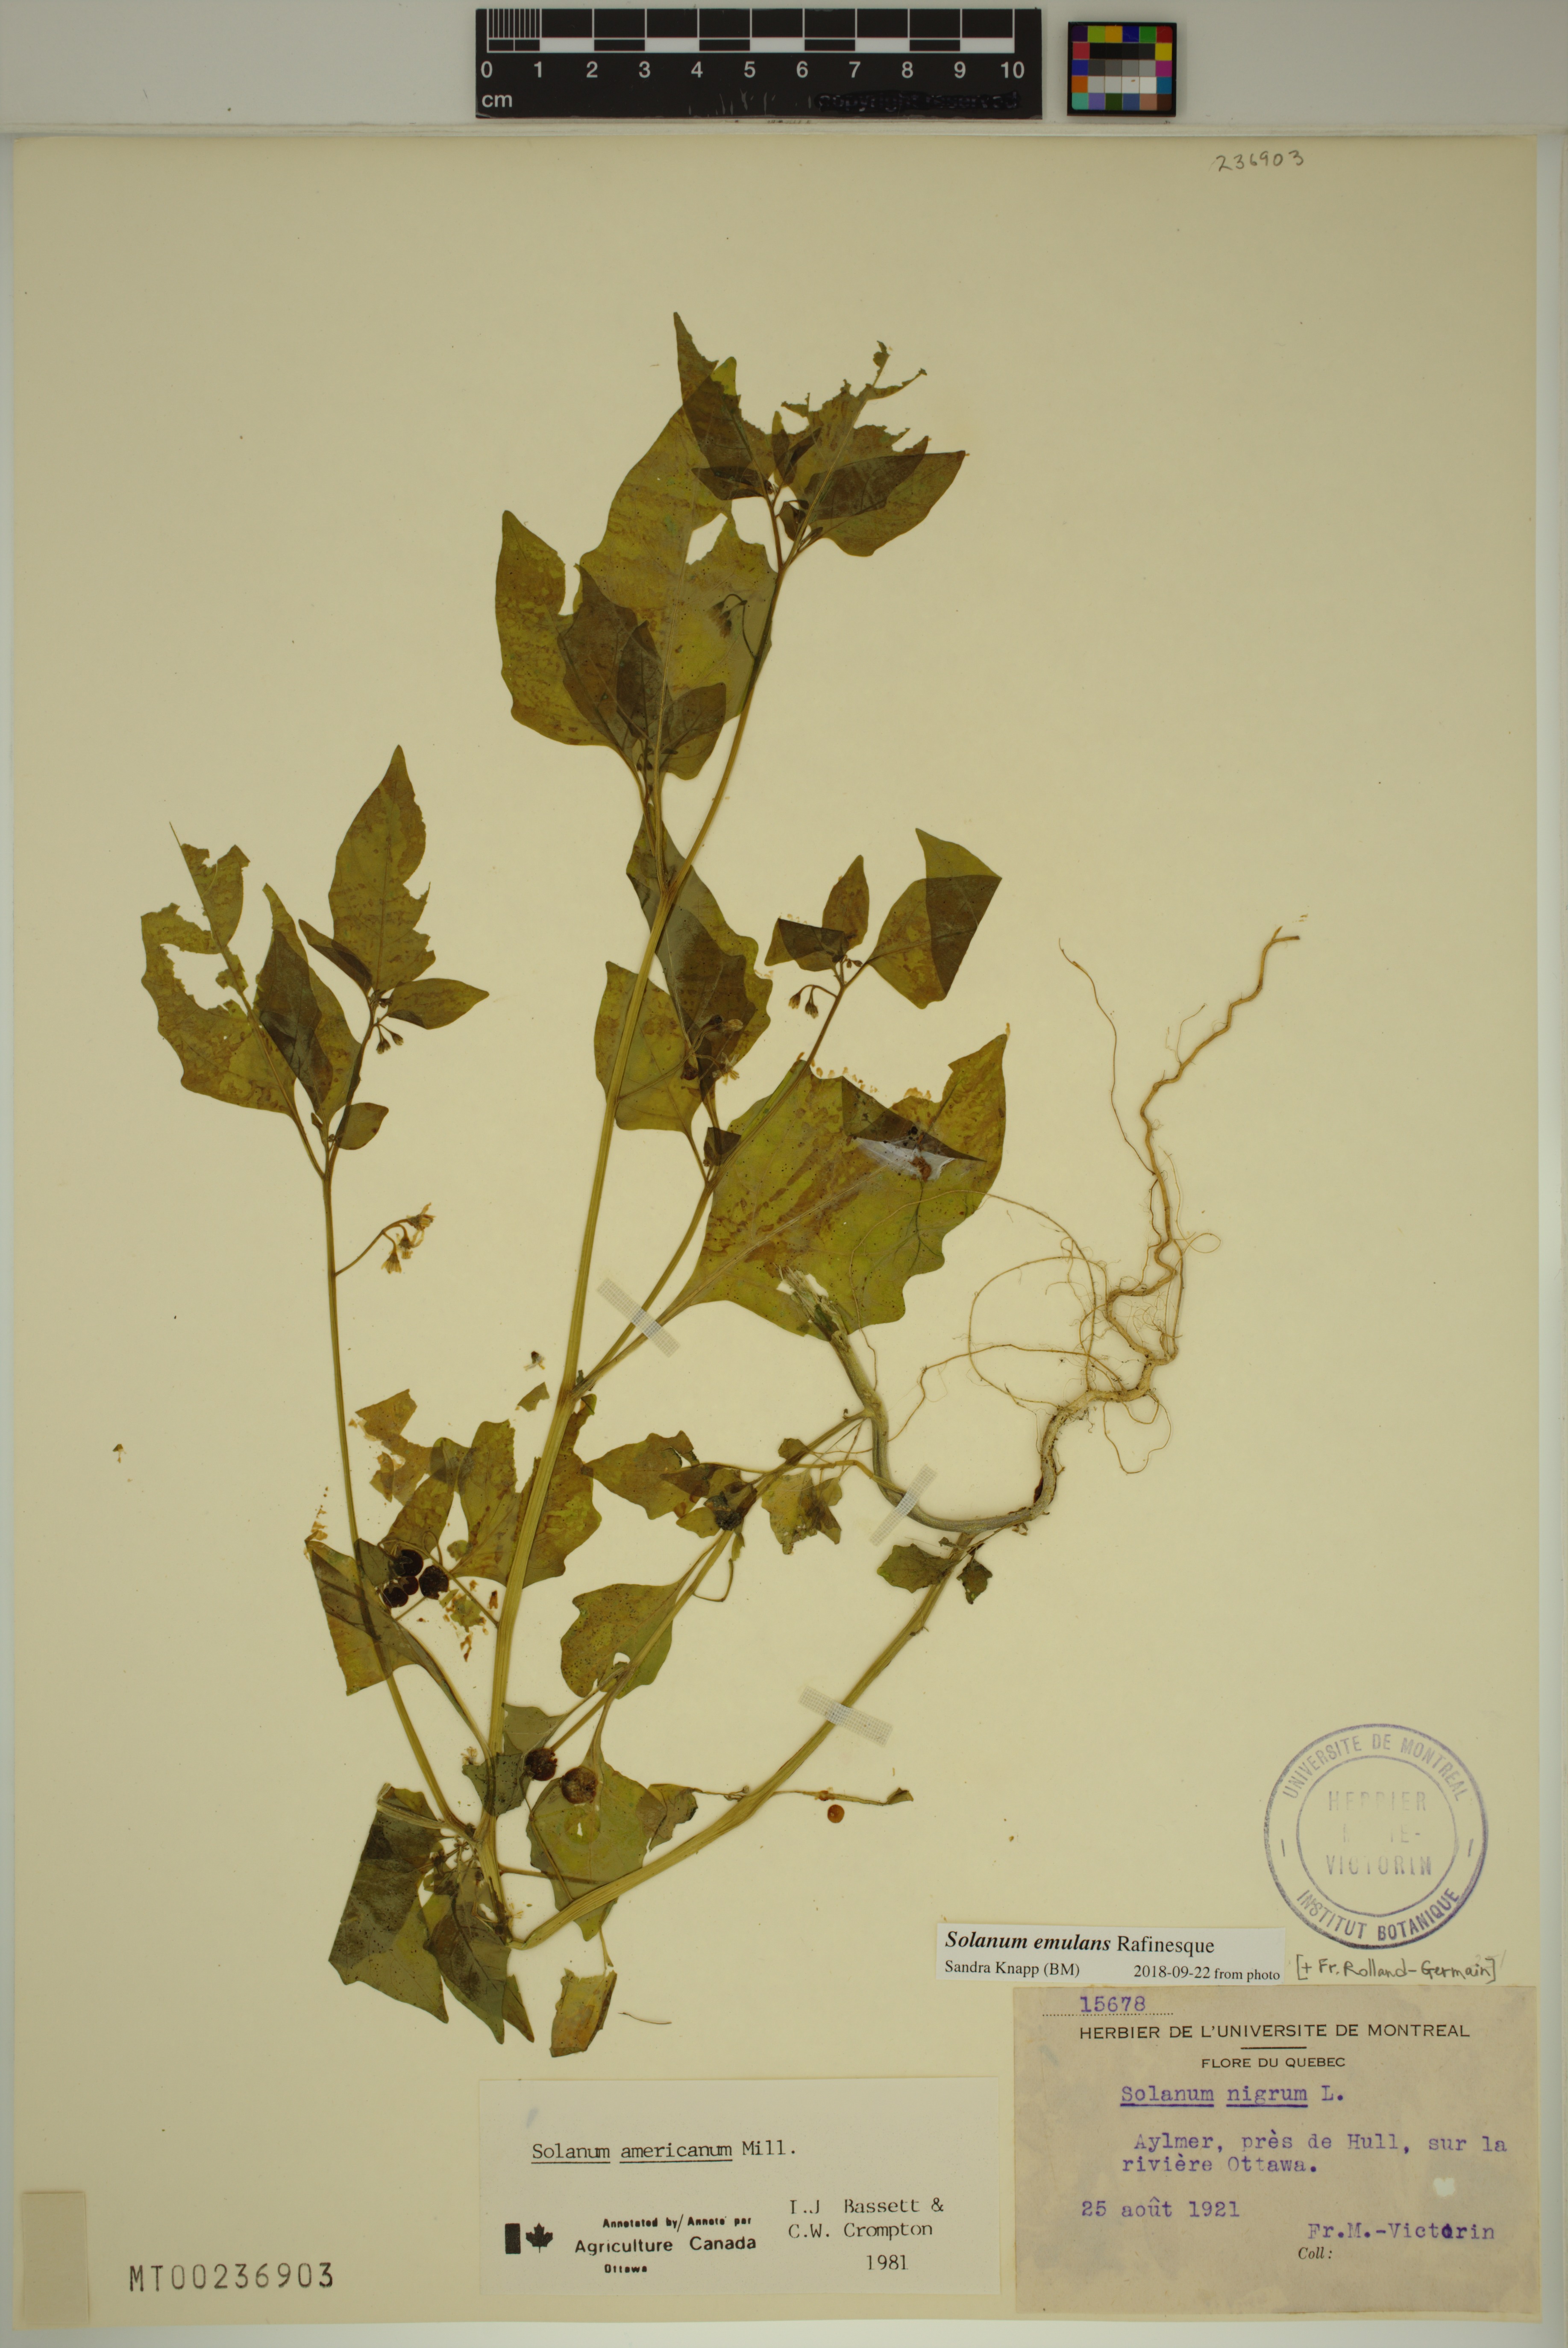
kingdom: Plantae
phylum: Tracheophyta
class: Magnoliopsida
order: Solanales
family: Solanaceae
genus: Solanum
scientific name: Solanum emulans
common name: Eastern black nightshade
